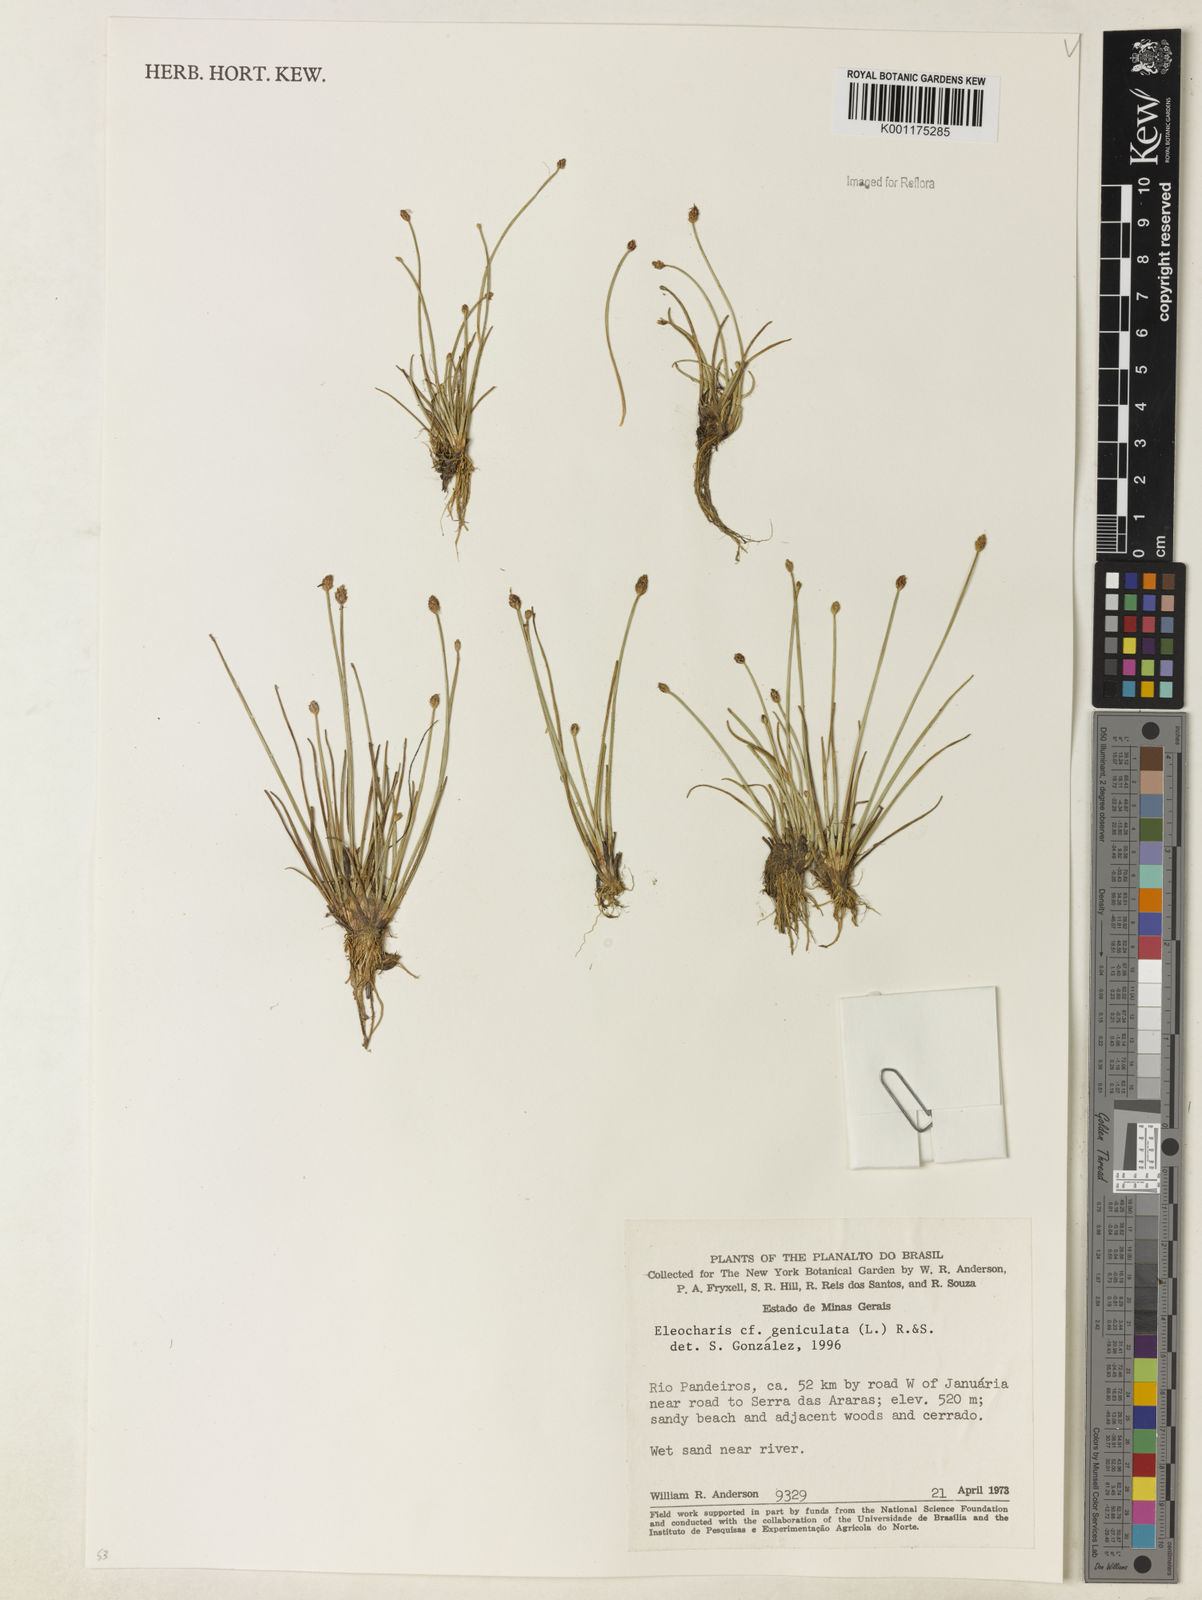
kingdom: Plantae
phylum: Tracheophyta
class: Liliopsida
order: Poales
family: Cyperaceae
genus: Eleocharis
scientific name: Eleocharis geniculata
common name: Canada spikesedge
